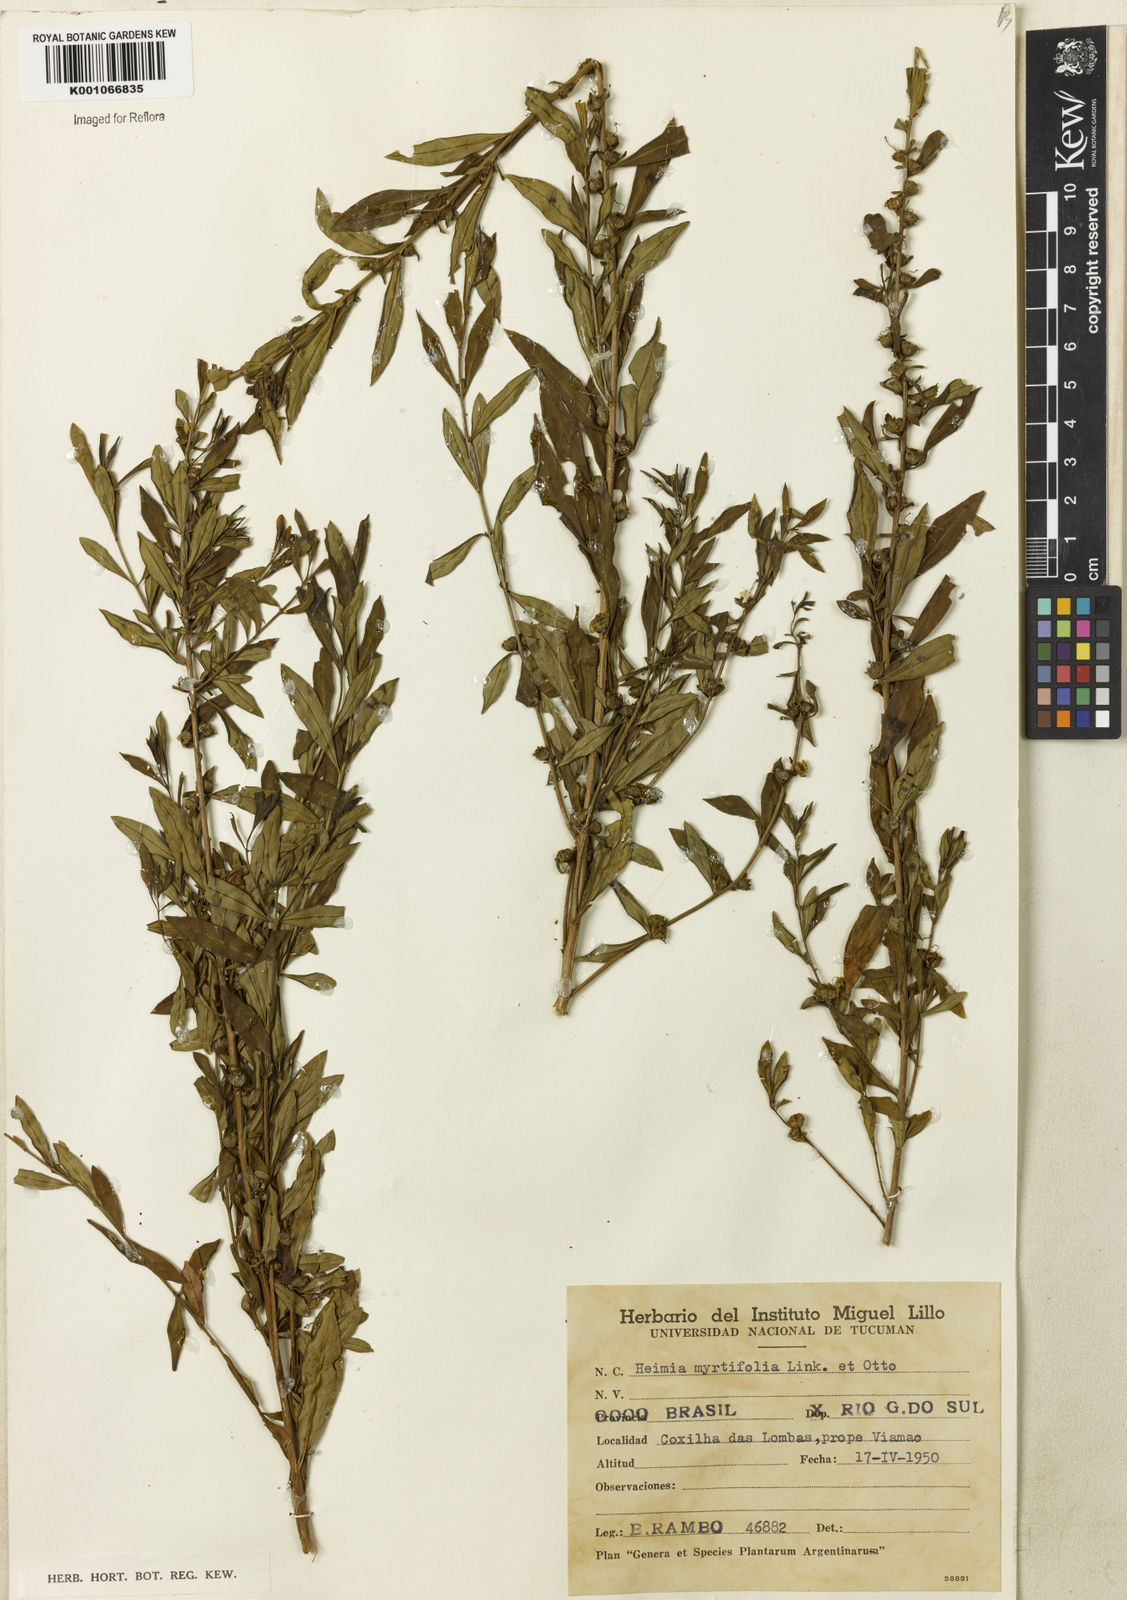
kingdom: Plantae
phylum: Tracheophyta
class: Magnoliopsida
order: Myrtales
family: Lythraceae
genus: Heimia
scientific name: Heimia apetala
